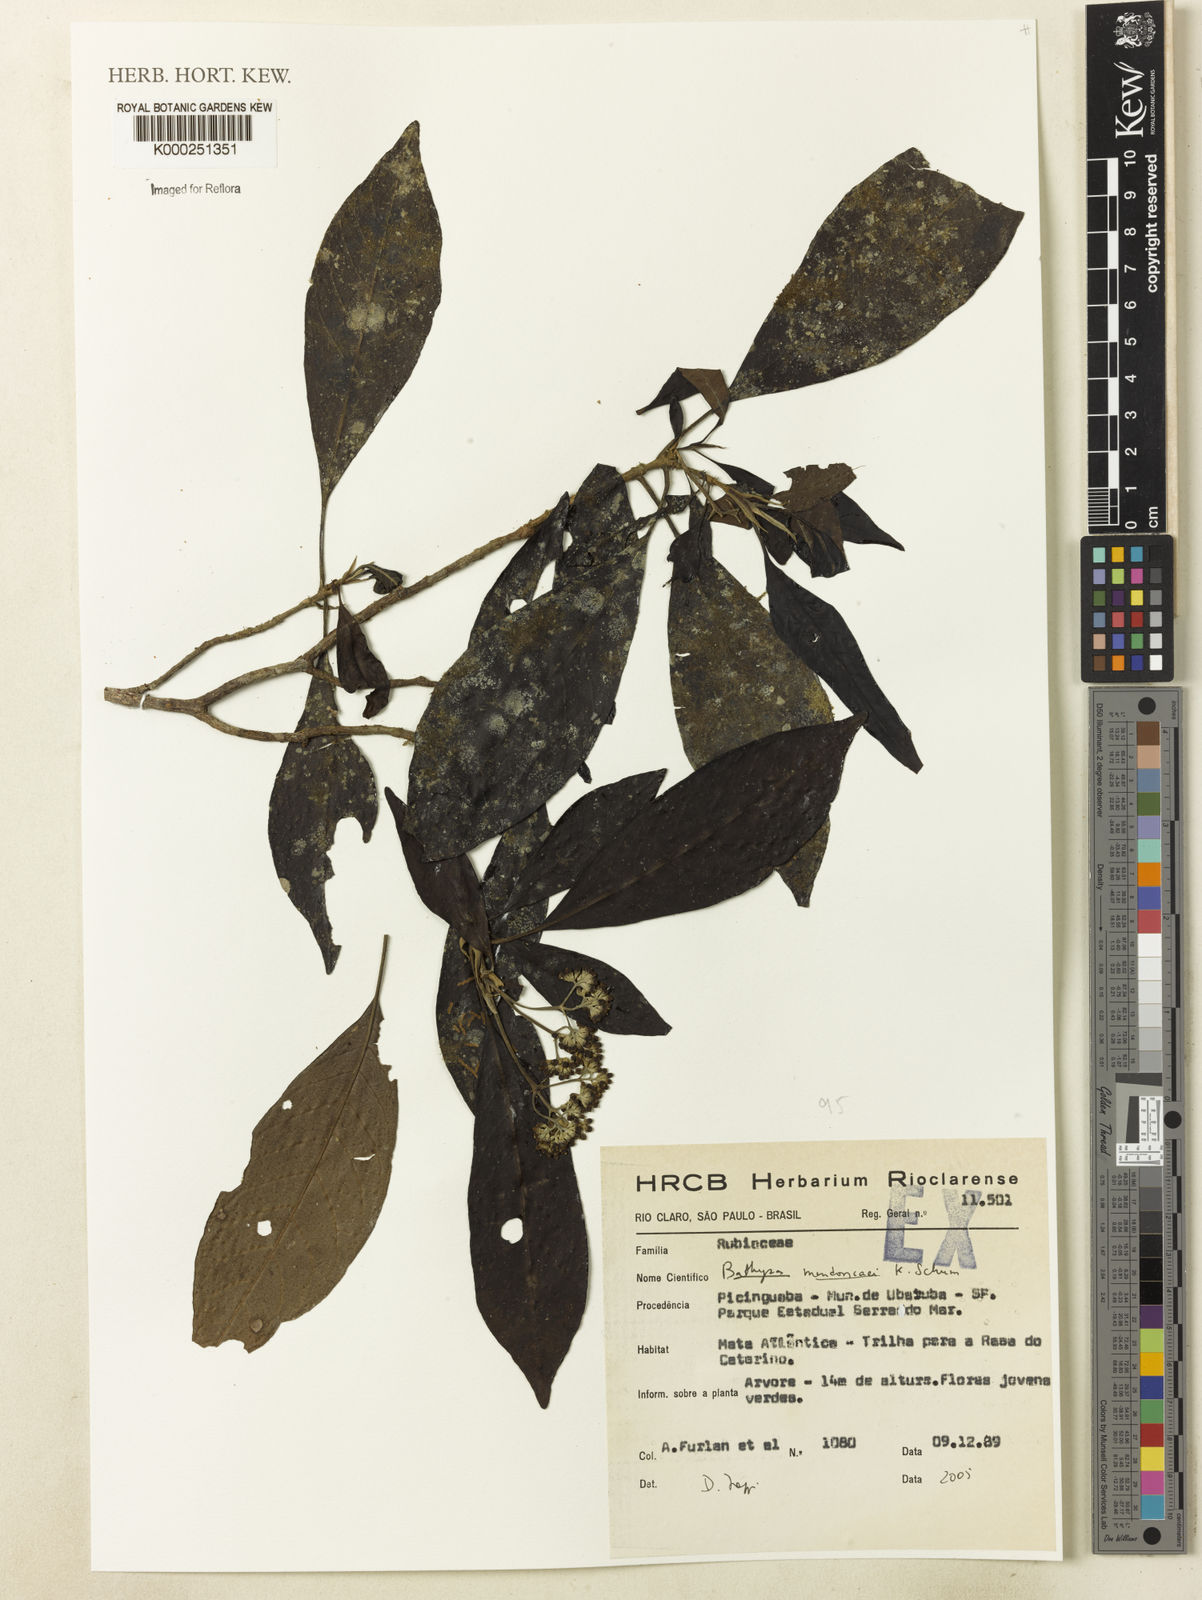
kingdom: Plantae
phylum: Tracheophyta
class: Magnoliopsida
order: Gentianales
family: Rubiaceae
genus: Bathysa
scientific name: Bathysa
